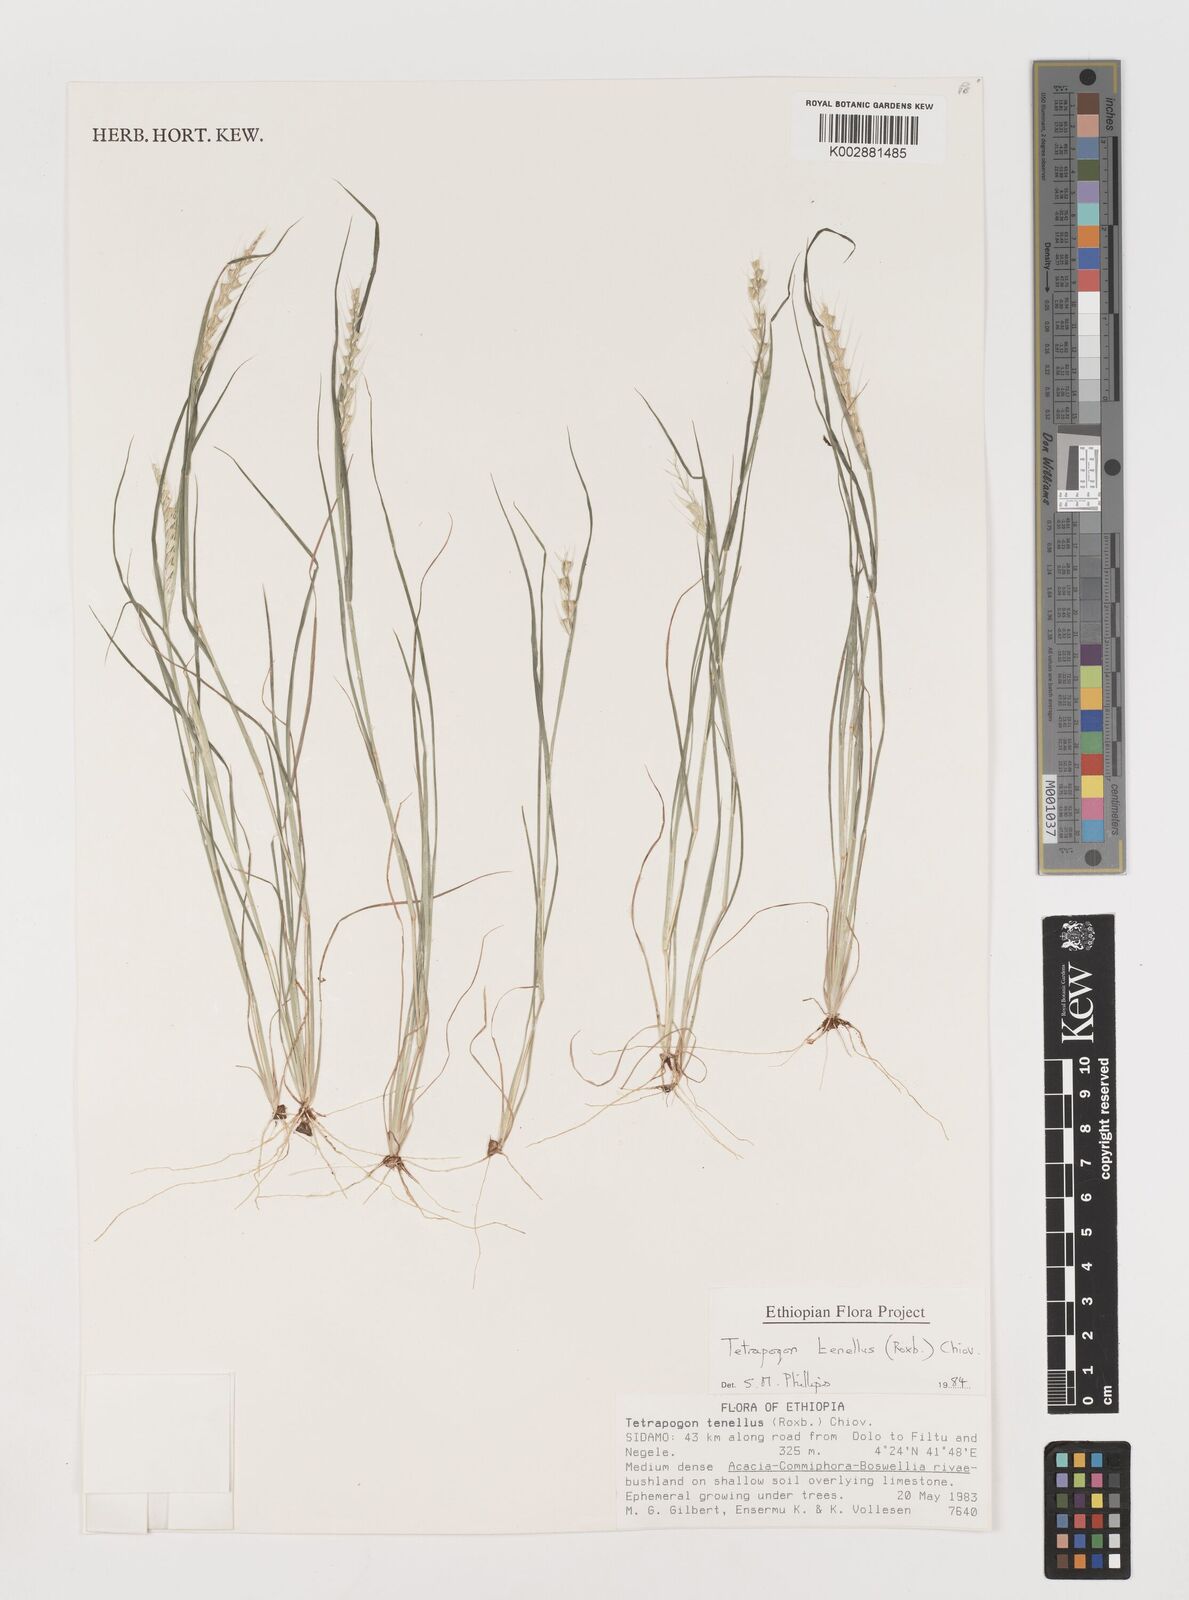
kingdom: Plantae
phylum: Tracheophyta
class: Liliopsida
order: Poales
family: Poaceae
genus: Tetrapogon
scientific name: Tetrapogon tenellus
